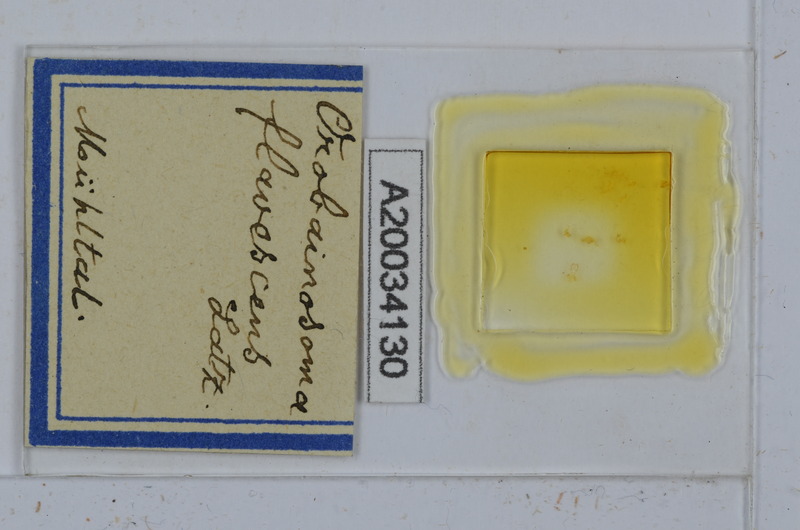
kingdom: Animalia
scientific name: Animalia
